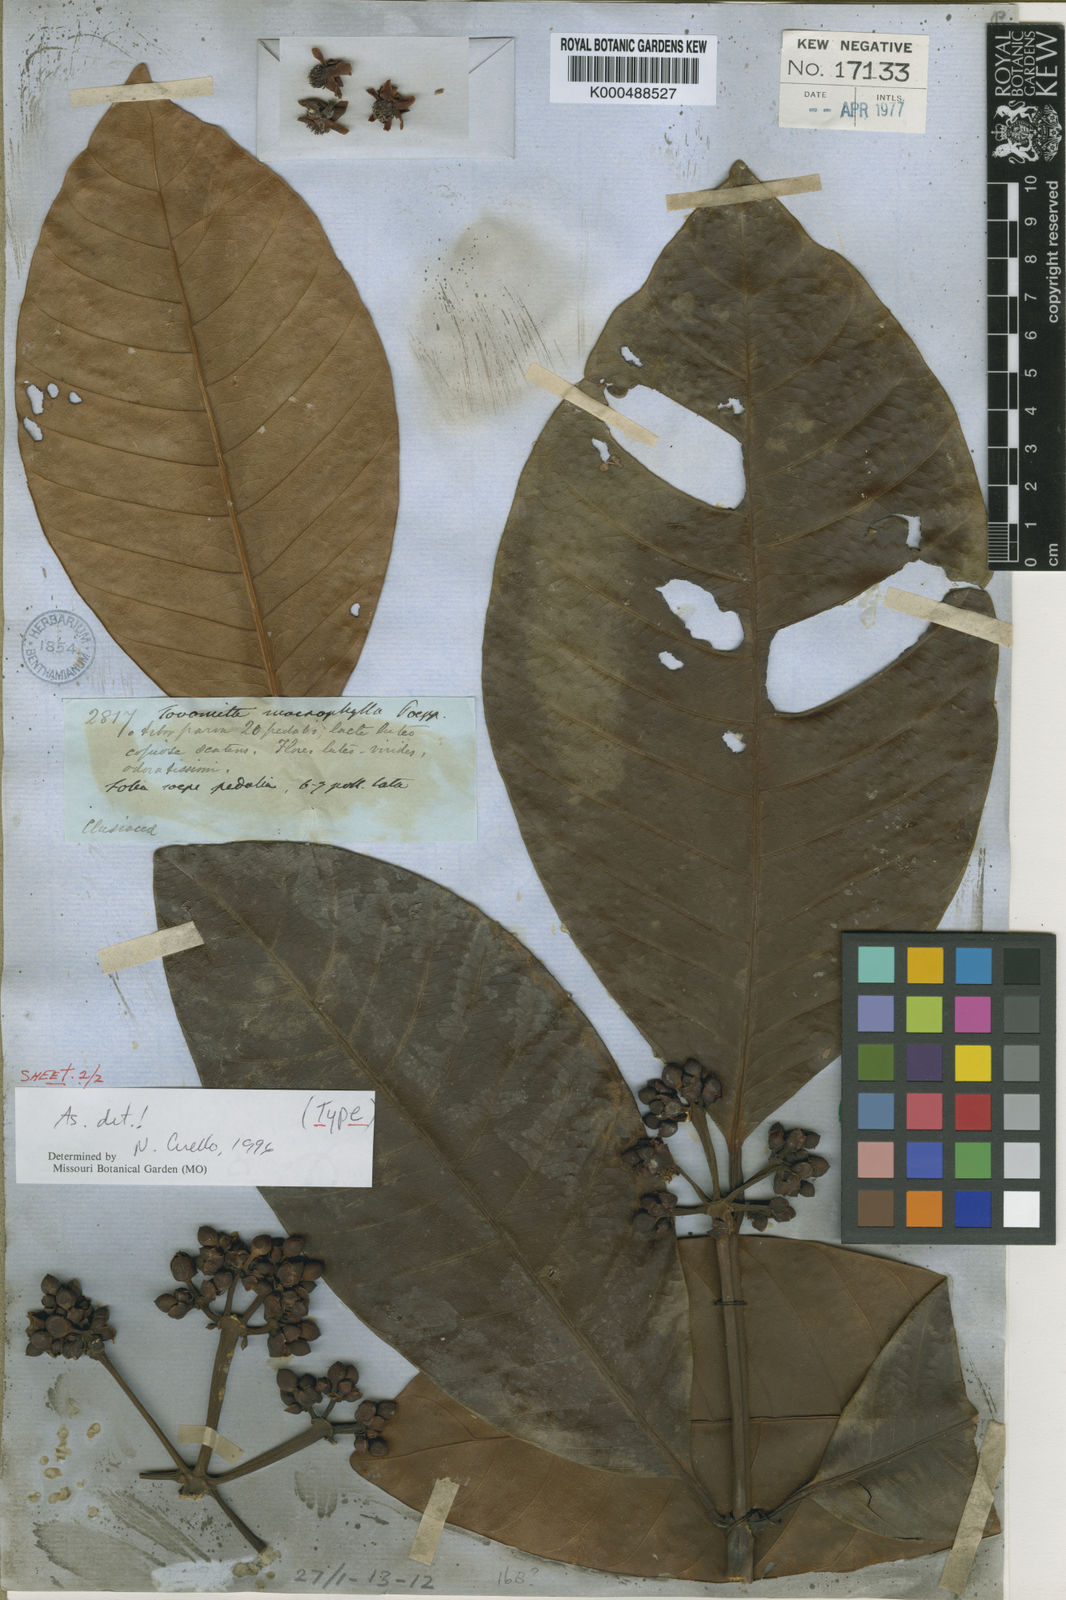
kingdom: Plantae
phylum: Tracheophyta
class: Magnoliopsida
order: Malpighiales
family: Clusiaceae
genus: Tovomita
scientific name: Tovomita macrophylla
